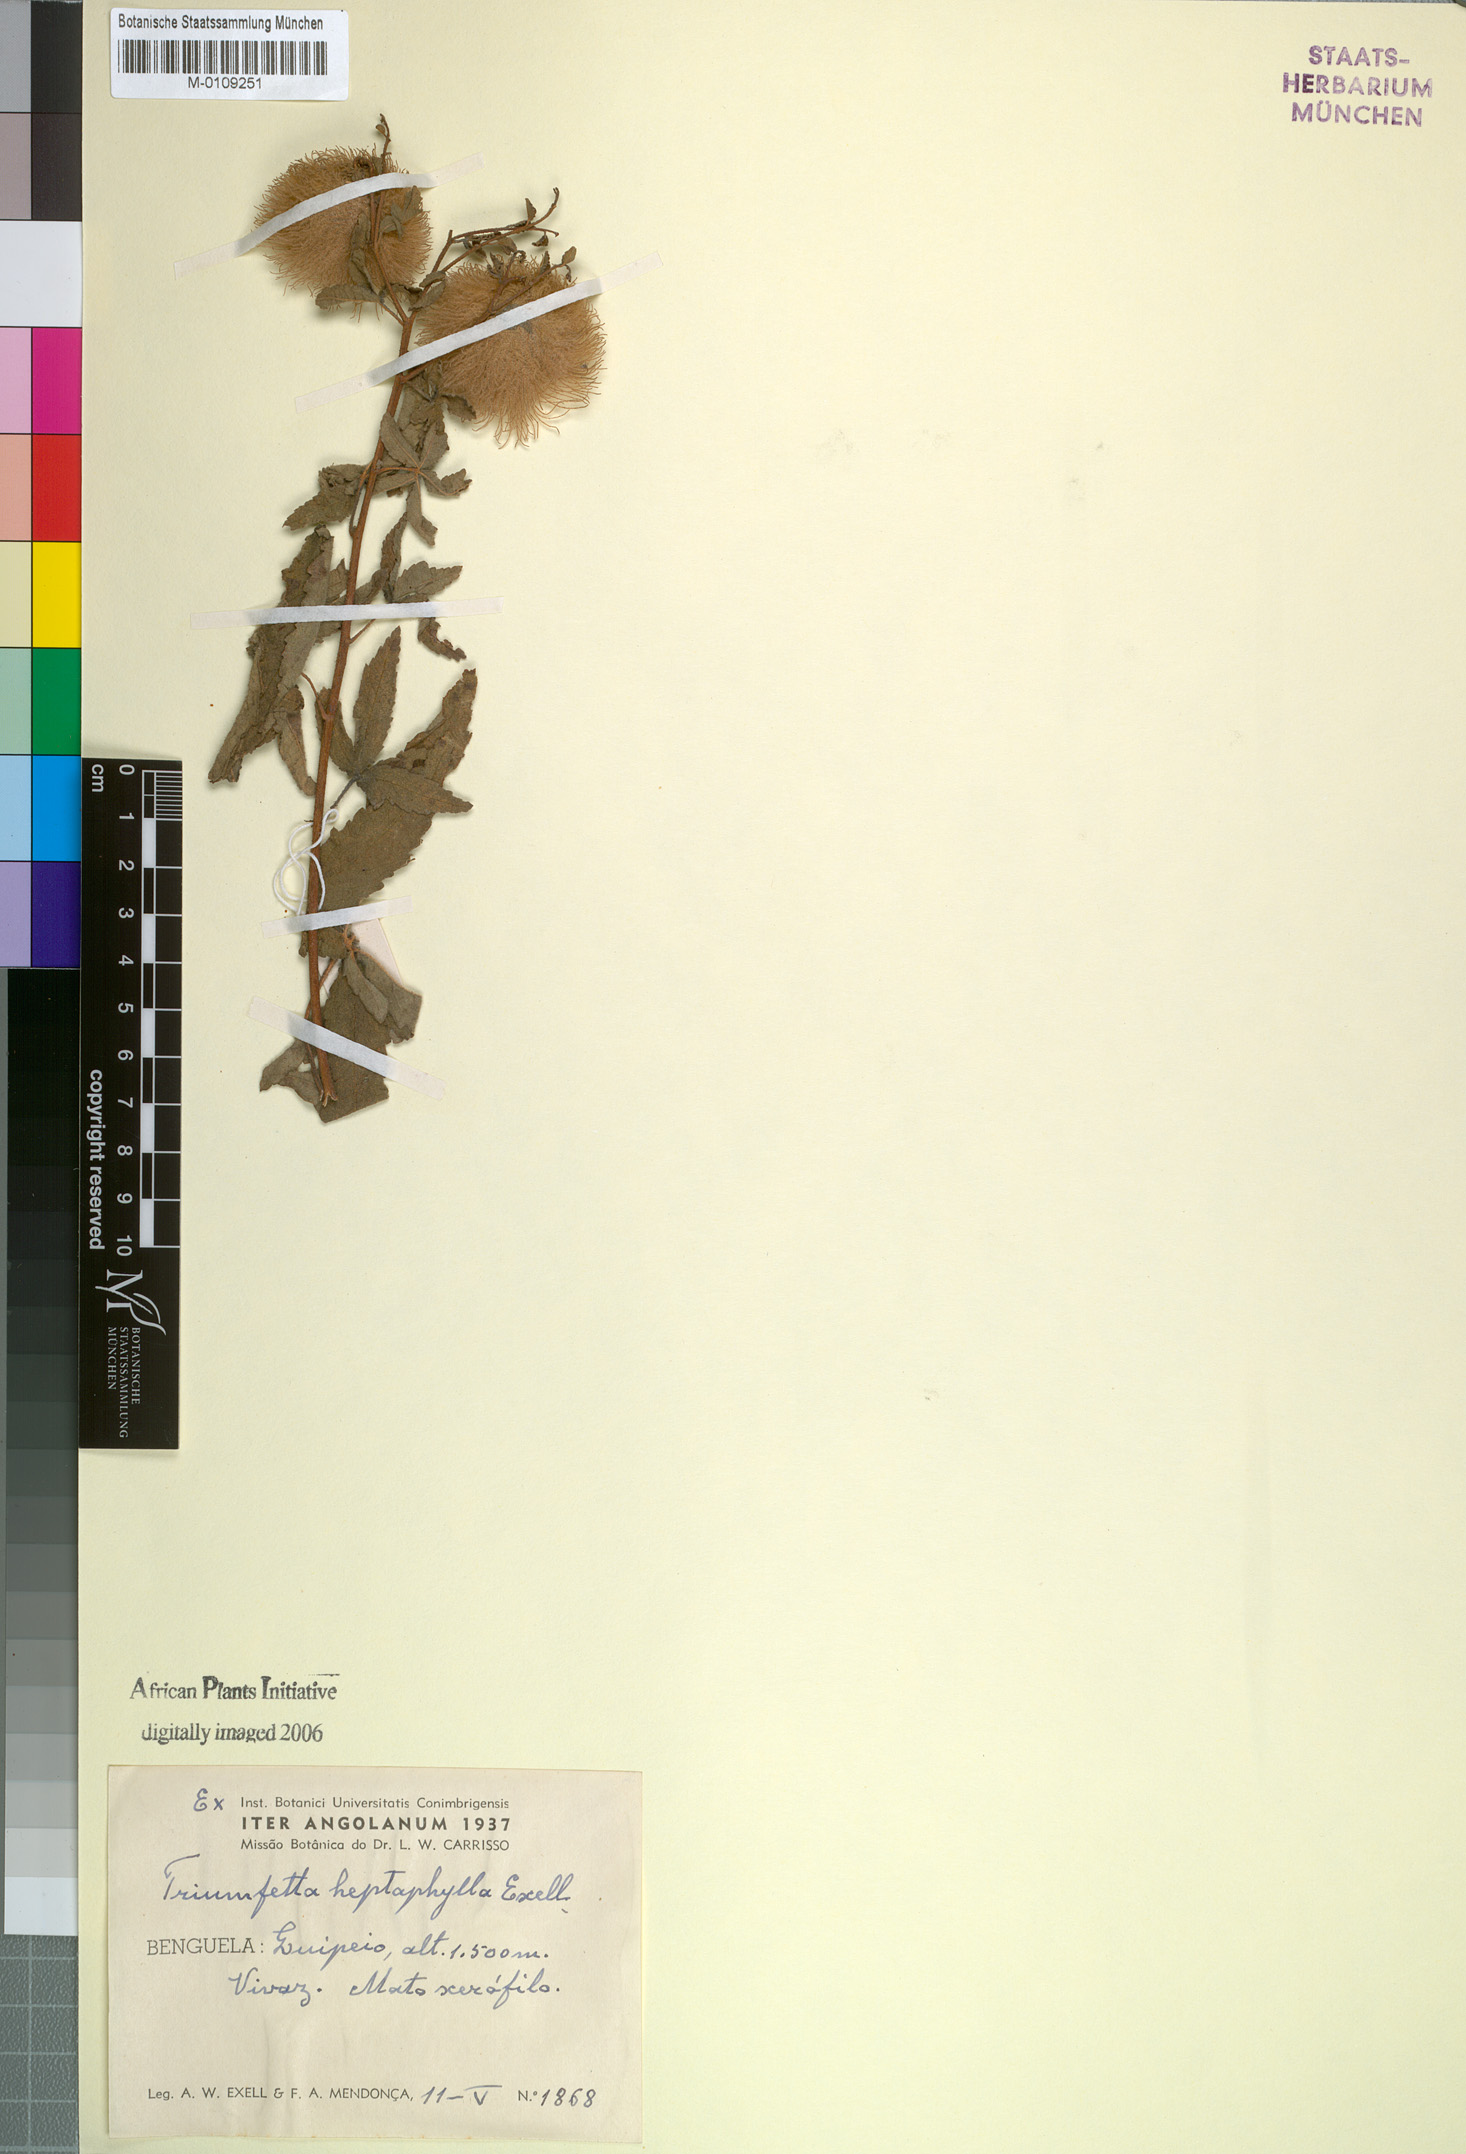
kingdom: Plantae
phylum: Tracheophyta
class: Magnoliopsida
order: Malvales
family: Malvaceae
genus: Triumfetta
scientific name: Triumfetta heptaphylla
